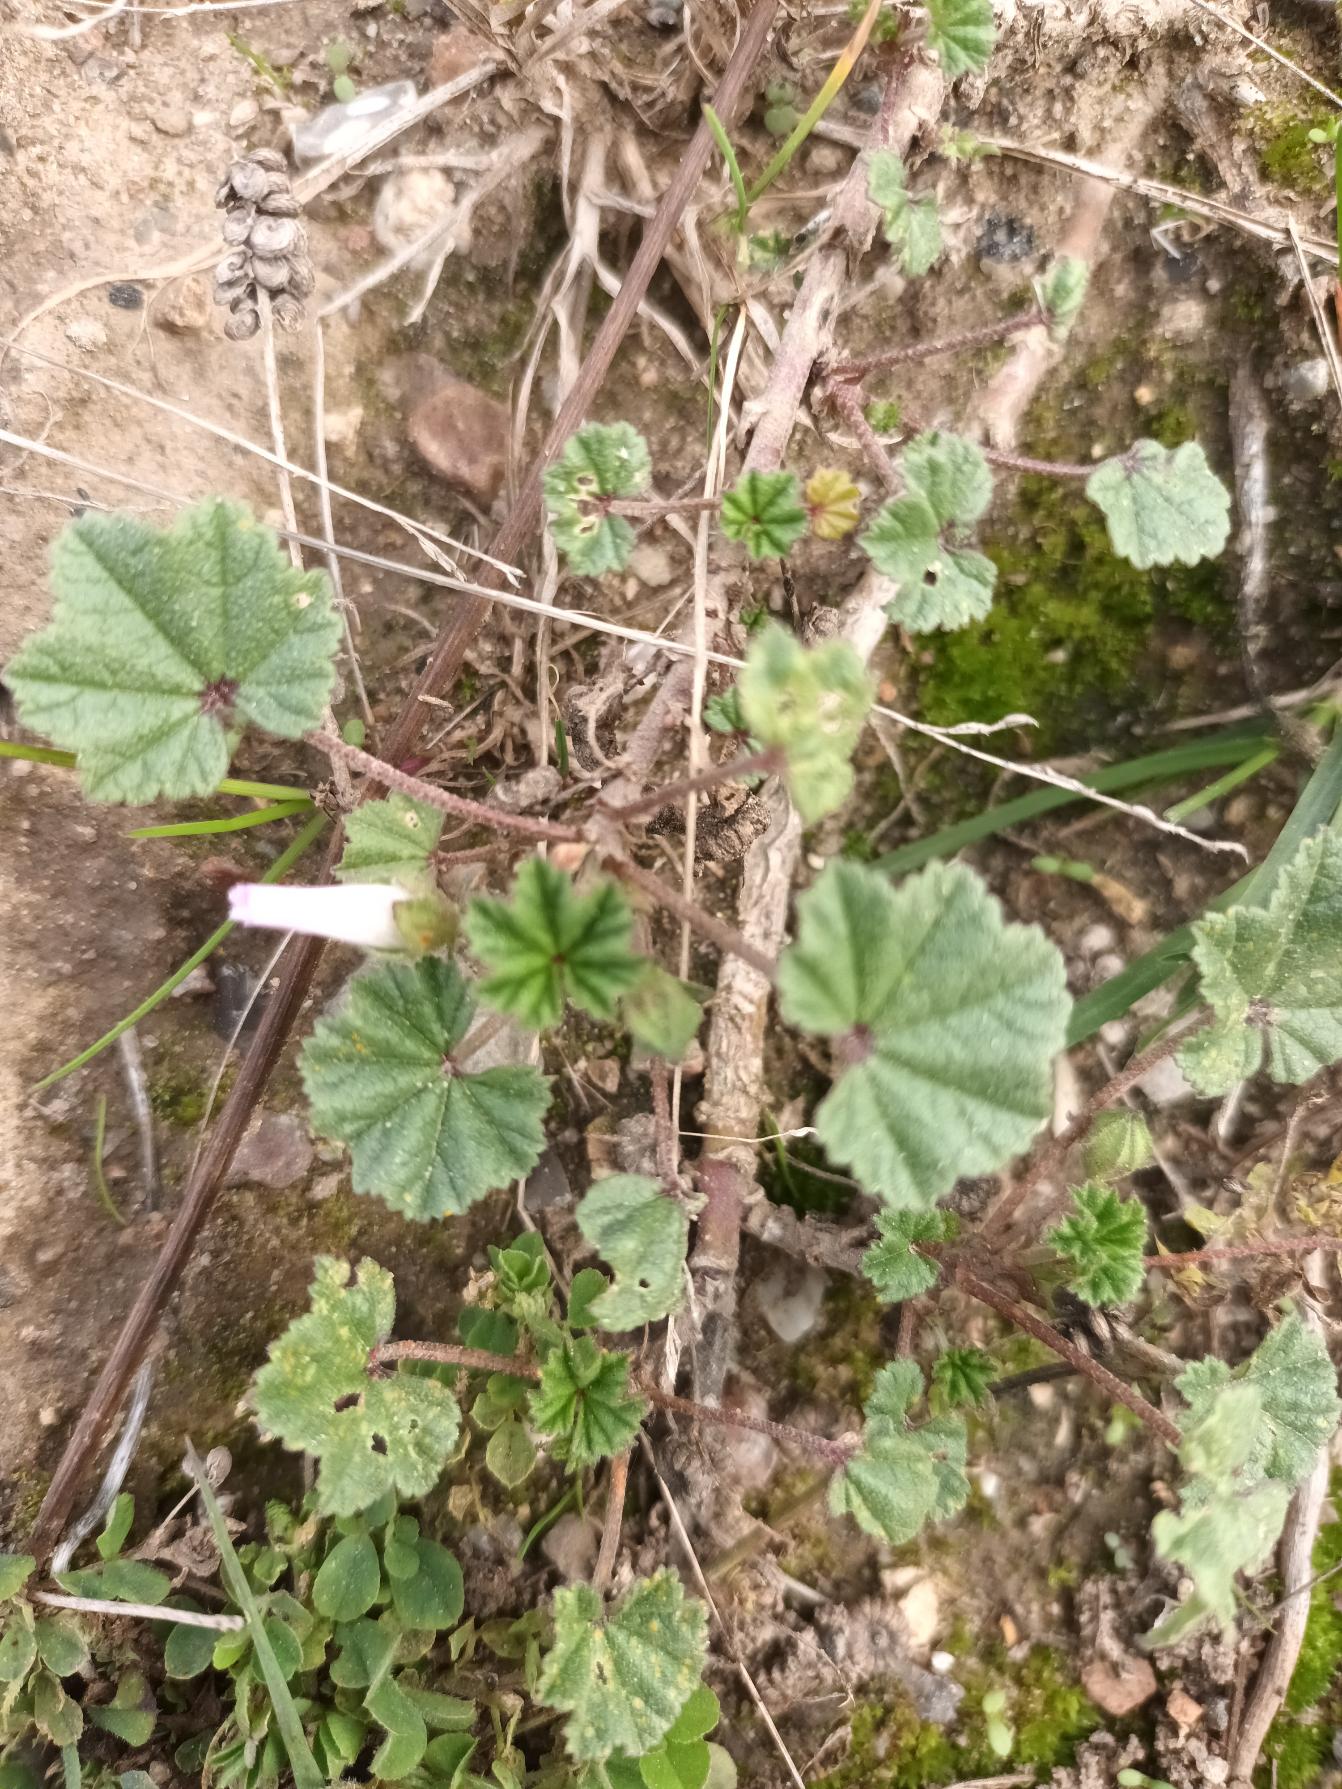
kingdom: Plantae
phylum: Tracheophyta
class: Magnoliopsida
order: Malvales
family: Malvaceae
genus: Malva
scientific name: Malva neglecta
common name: Rundbladet katost
